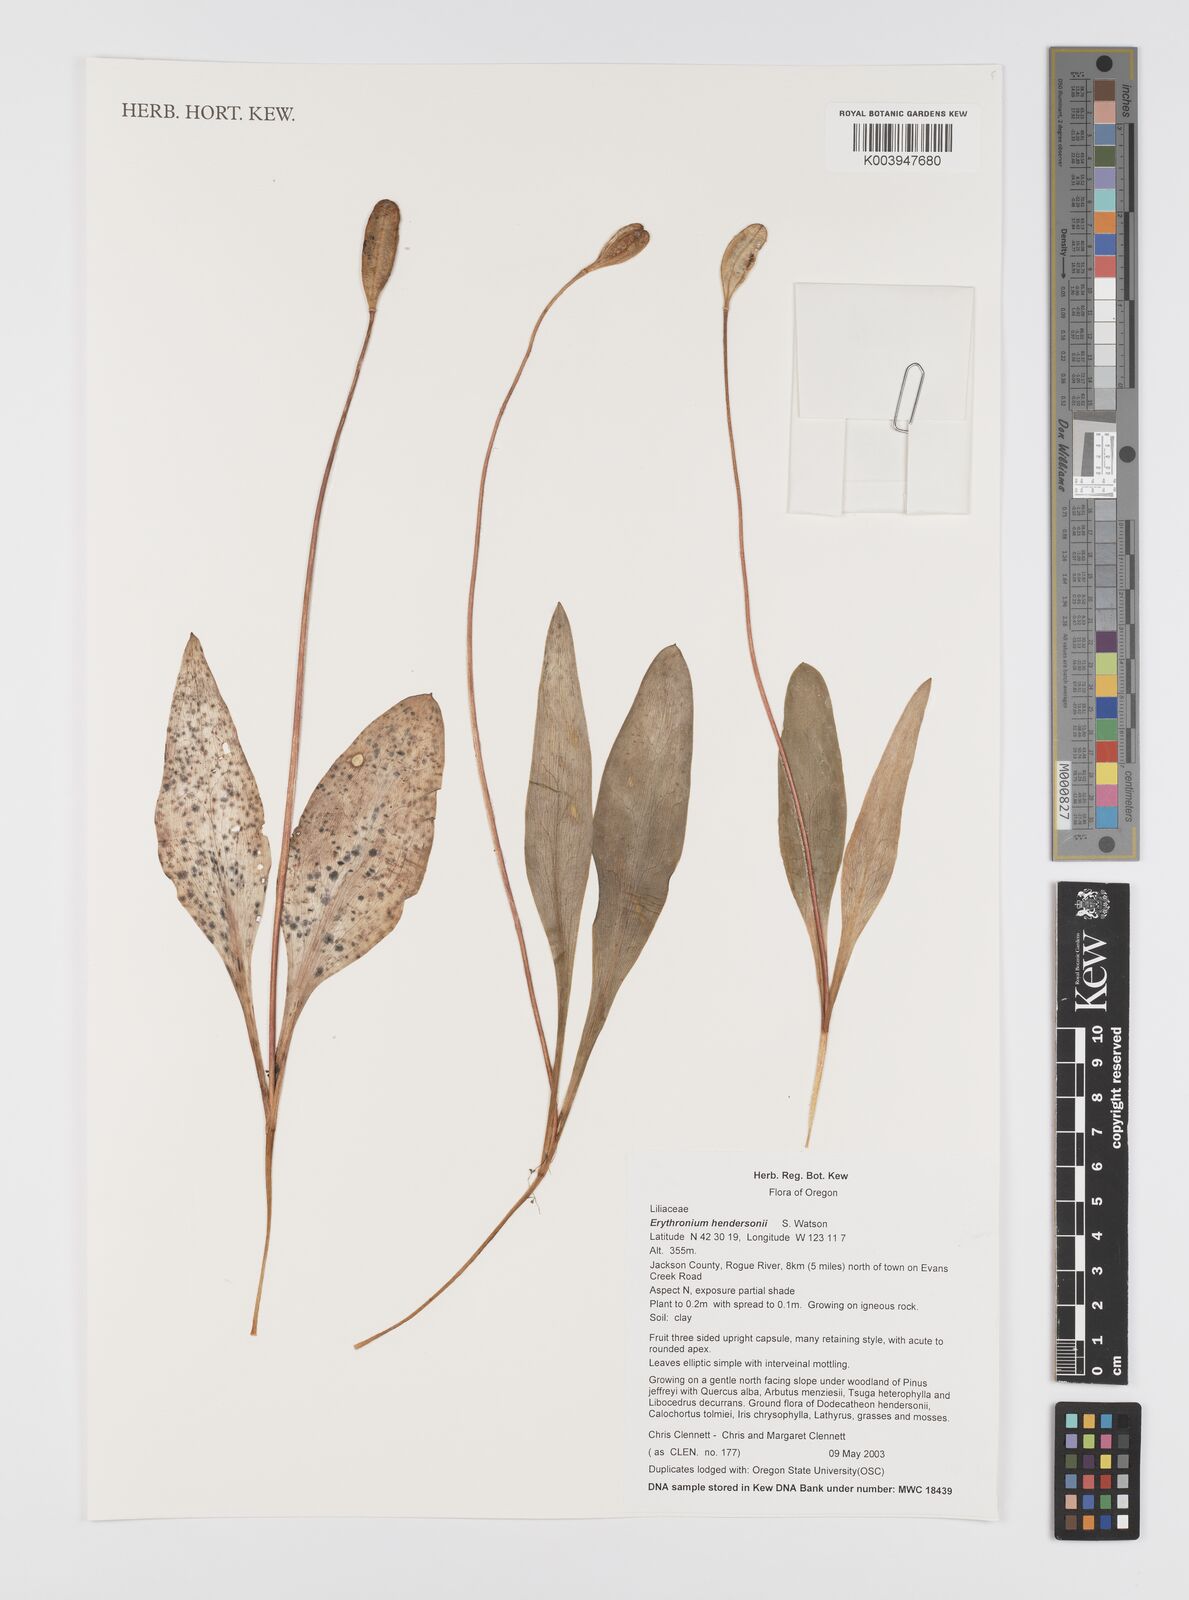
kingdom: Plantae
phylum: Tracheophyta
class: Liliopsida
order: Liliales
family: Liliaceae
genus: Erythronium
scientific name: Erythronium hendersonii
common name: Henderson's fawn-lily
